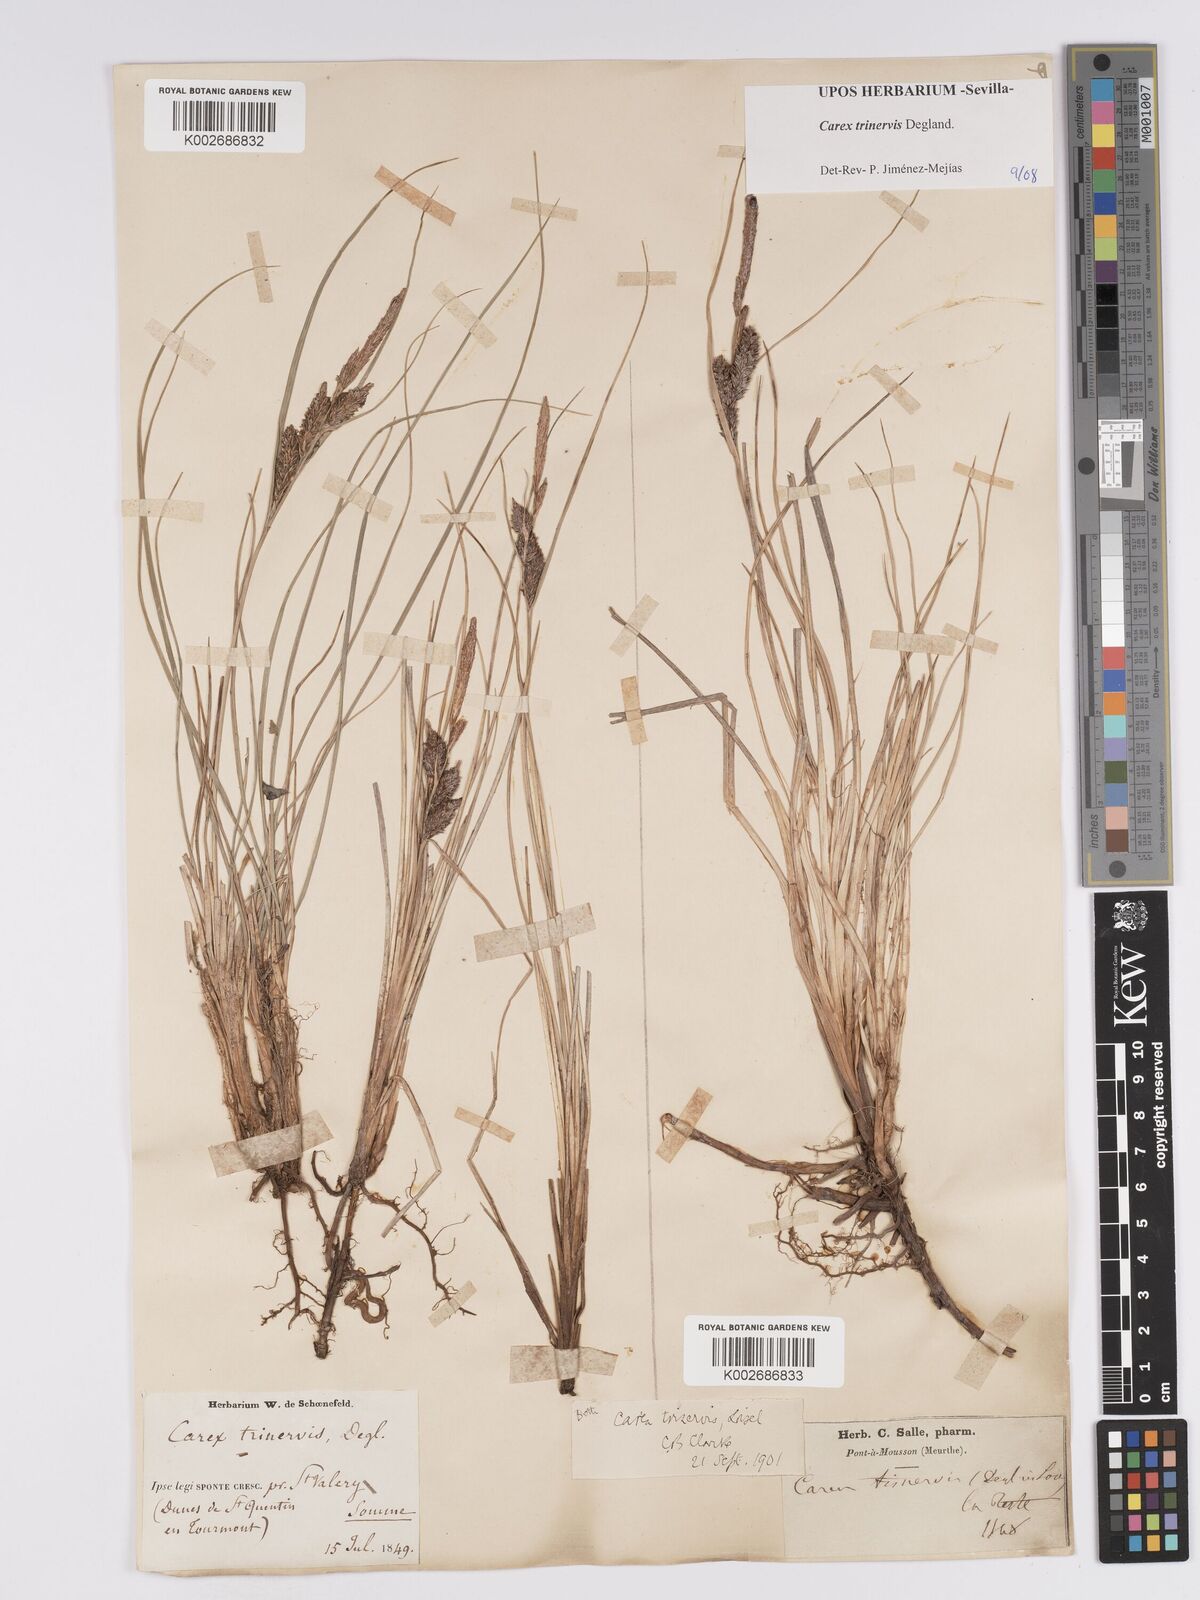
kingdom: Plantae
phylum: Tracheophyta
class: Liliopsida
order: Poales
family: Cyperaceae
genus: Carex
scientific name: Carex trinervis
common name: Three-nerved sedge
